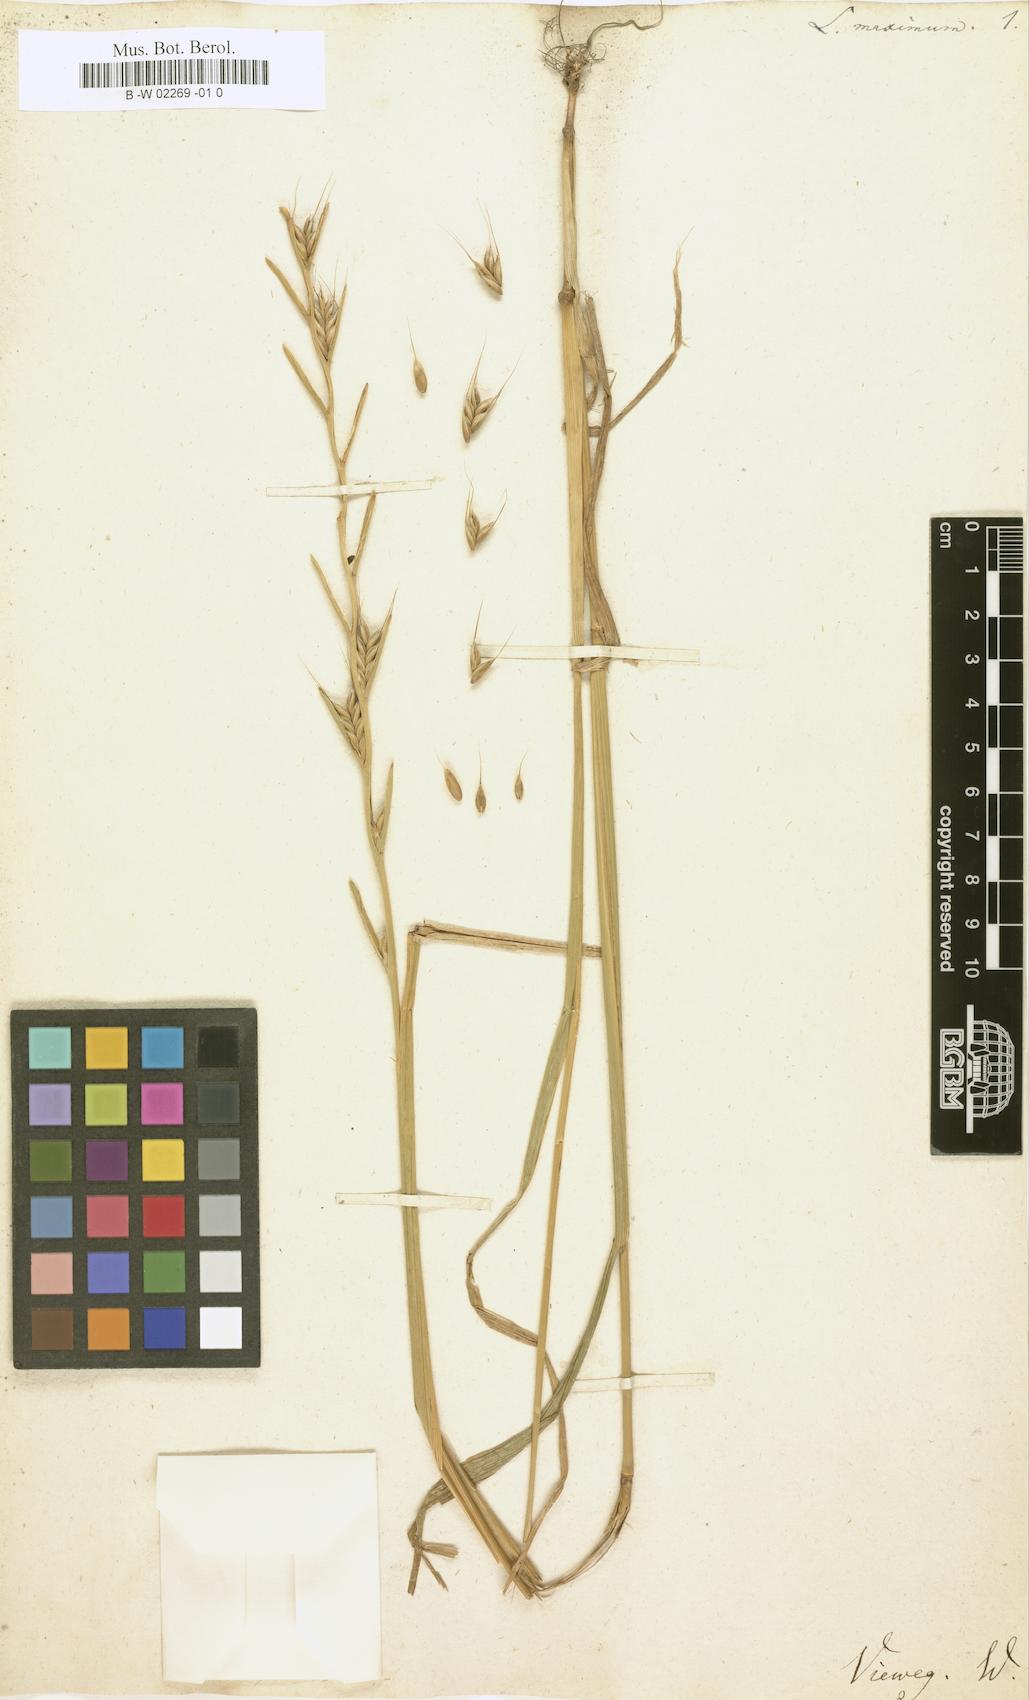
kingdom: Plantae
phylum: Tracheophyta
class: Liliopsida
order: Poales
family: Poaceae
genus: Lolium
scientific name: Lolium temulentum
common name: Darnel
